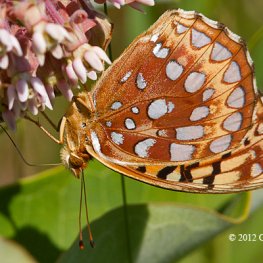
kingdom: Animalia
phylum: Arthropoda
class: Insecta
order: Lepidoptera
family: Nymphalidae
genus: Speyeria
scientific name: Speyeria aphrodite
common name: Aphrodite Fritillary
